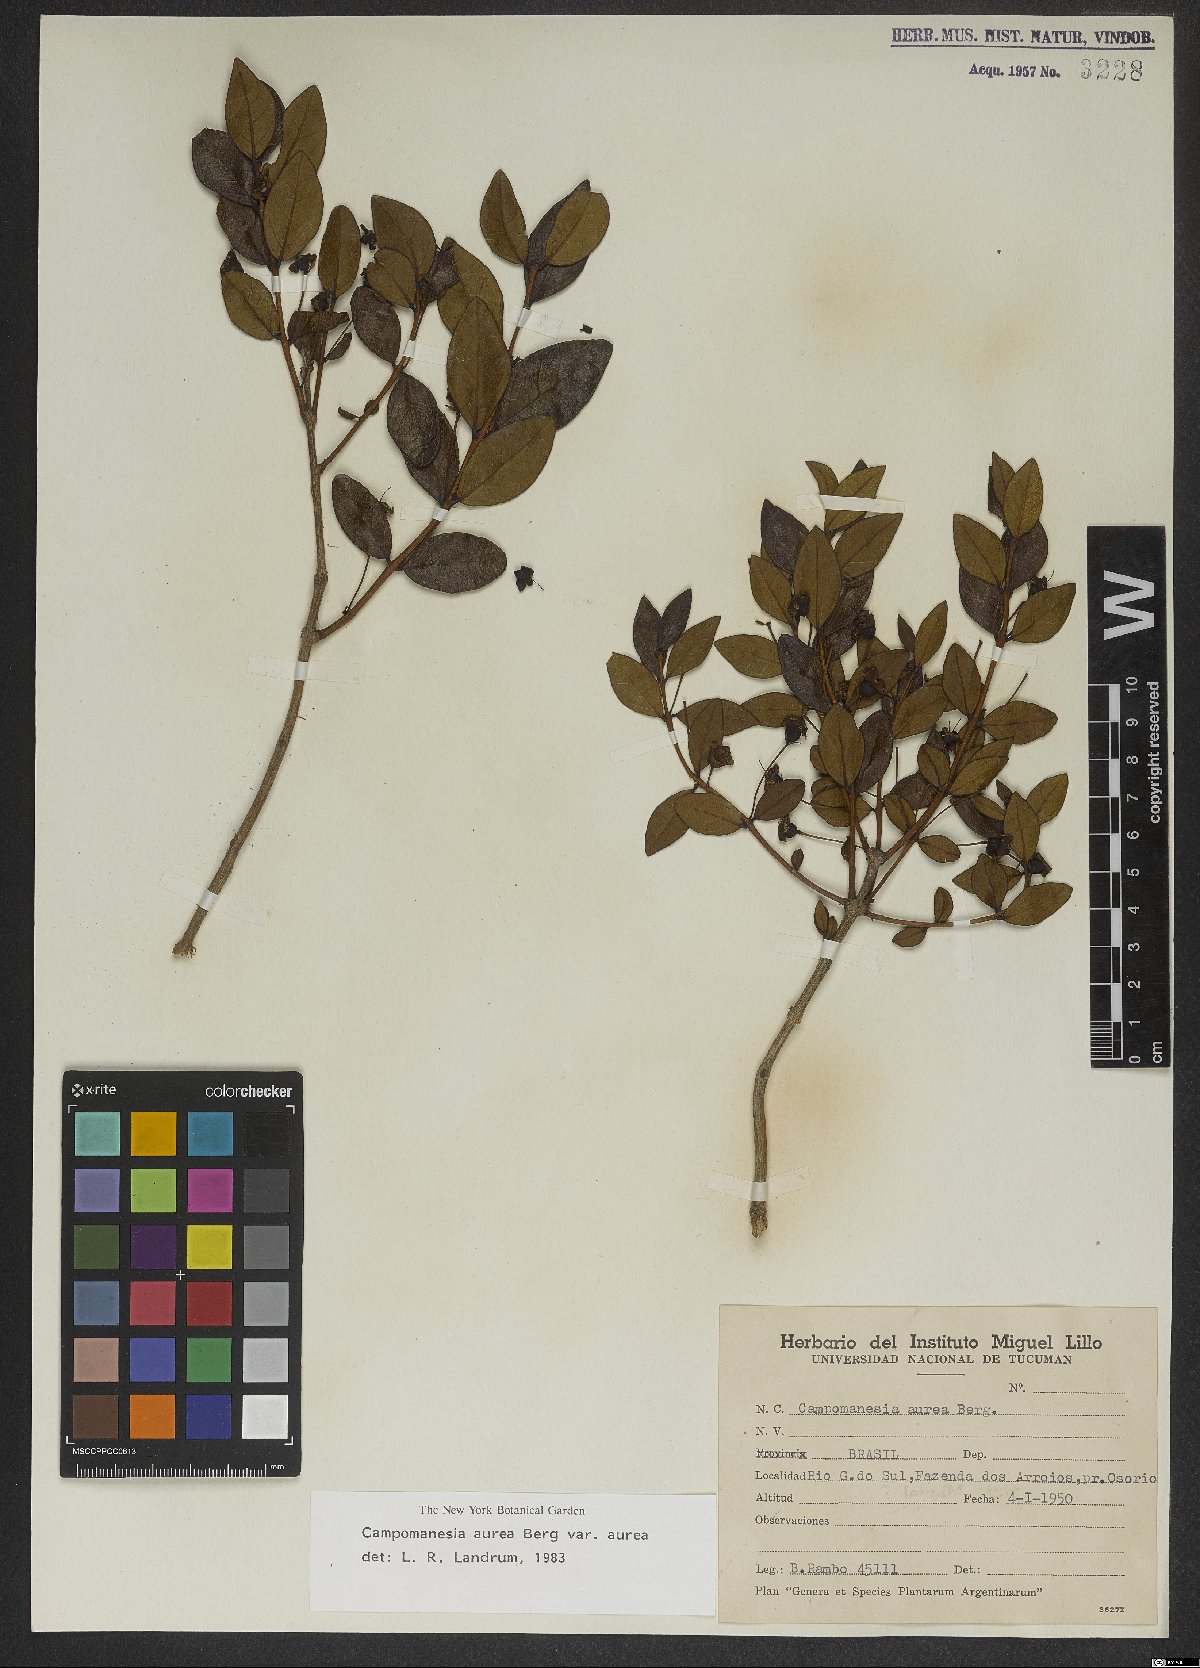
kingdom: Plantae
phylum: Tracheophyta
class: Magnoliopsida
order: Myrtales
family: Myrtaceae
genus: Campomanesia
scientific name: Campomanesia aurea
